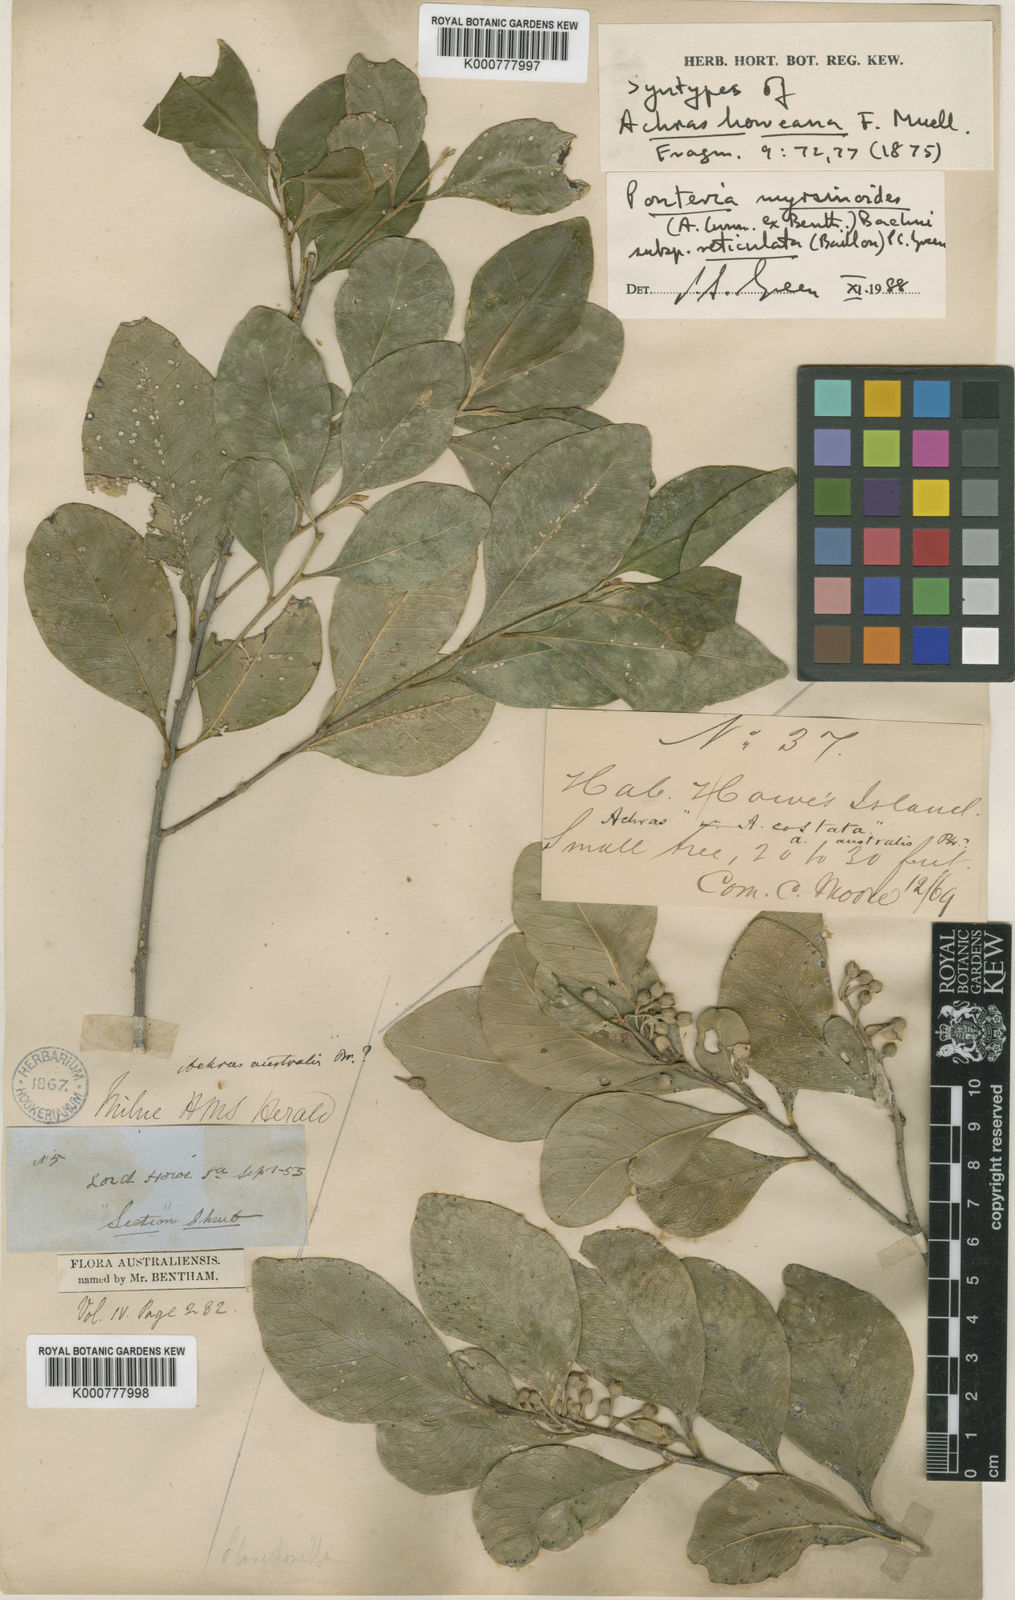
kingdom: Plantae
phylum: Tracheophyta
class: Magnoliopsida
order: Ericales
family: Sapotaceae
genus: Planchonella
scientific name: Planchonella myrsinoides
